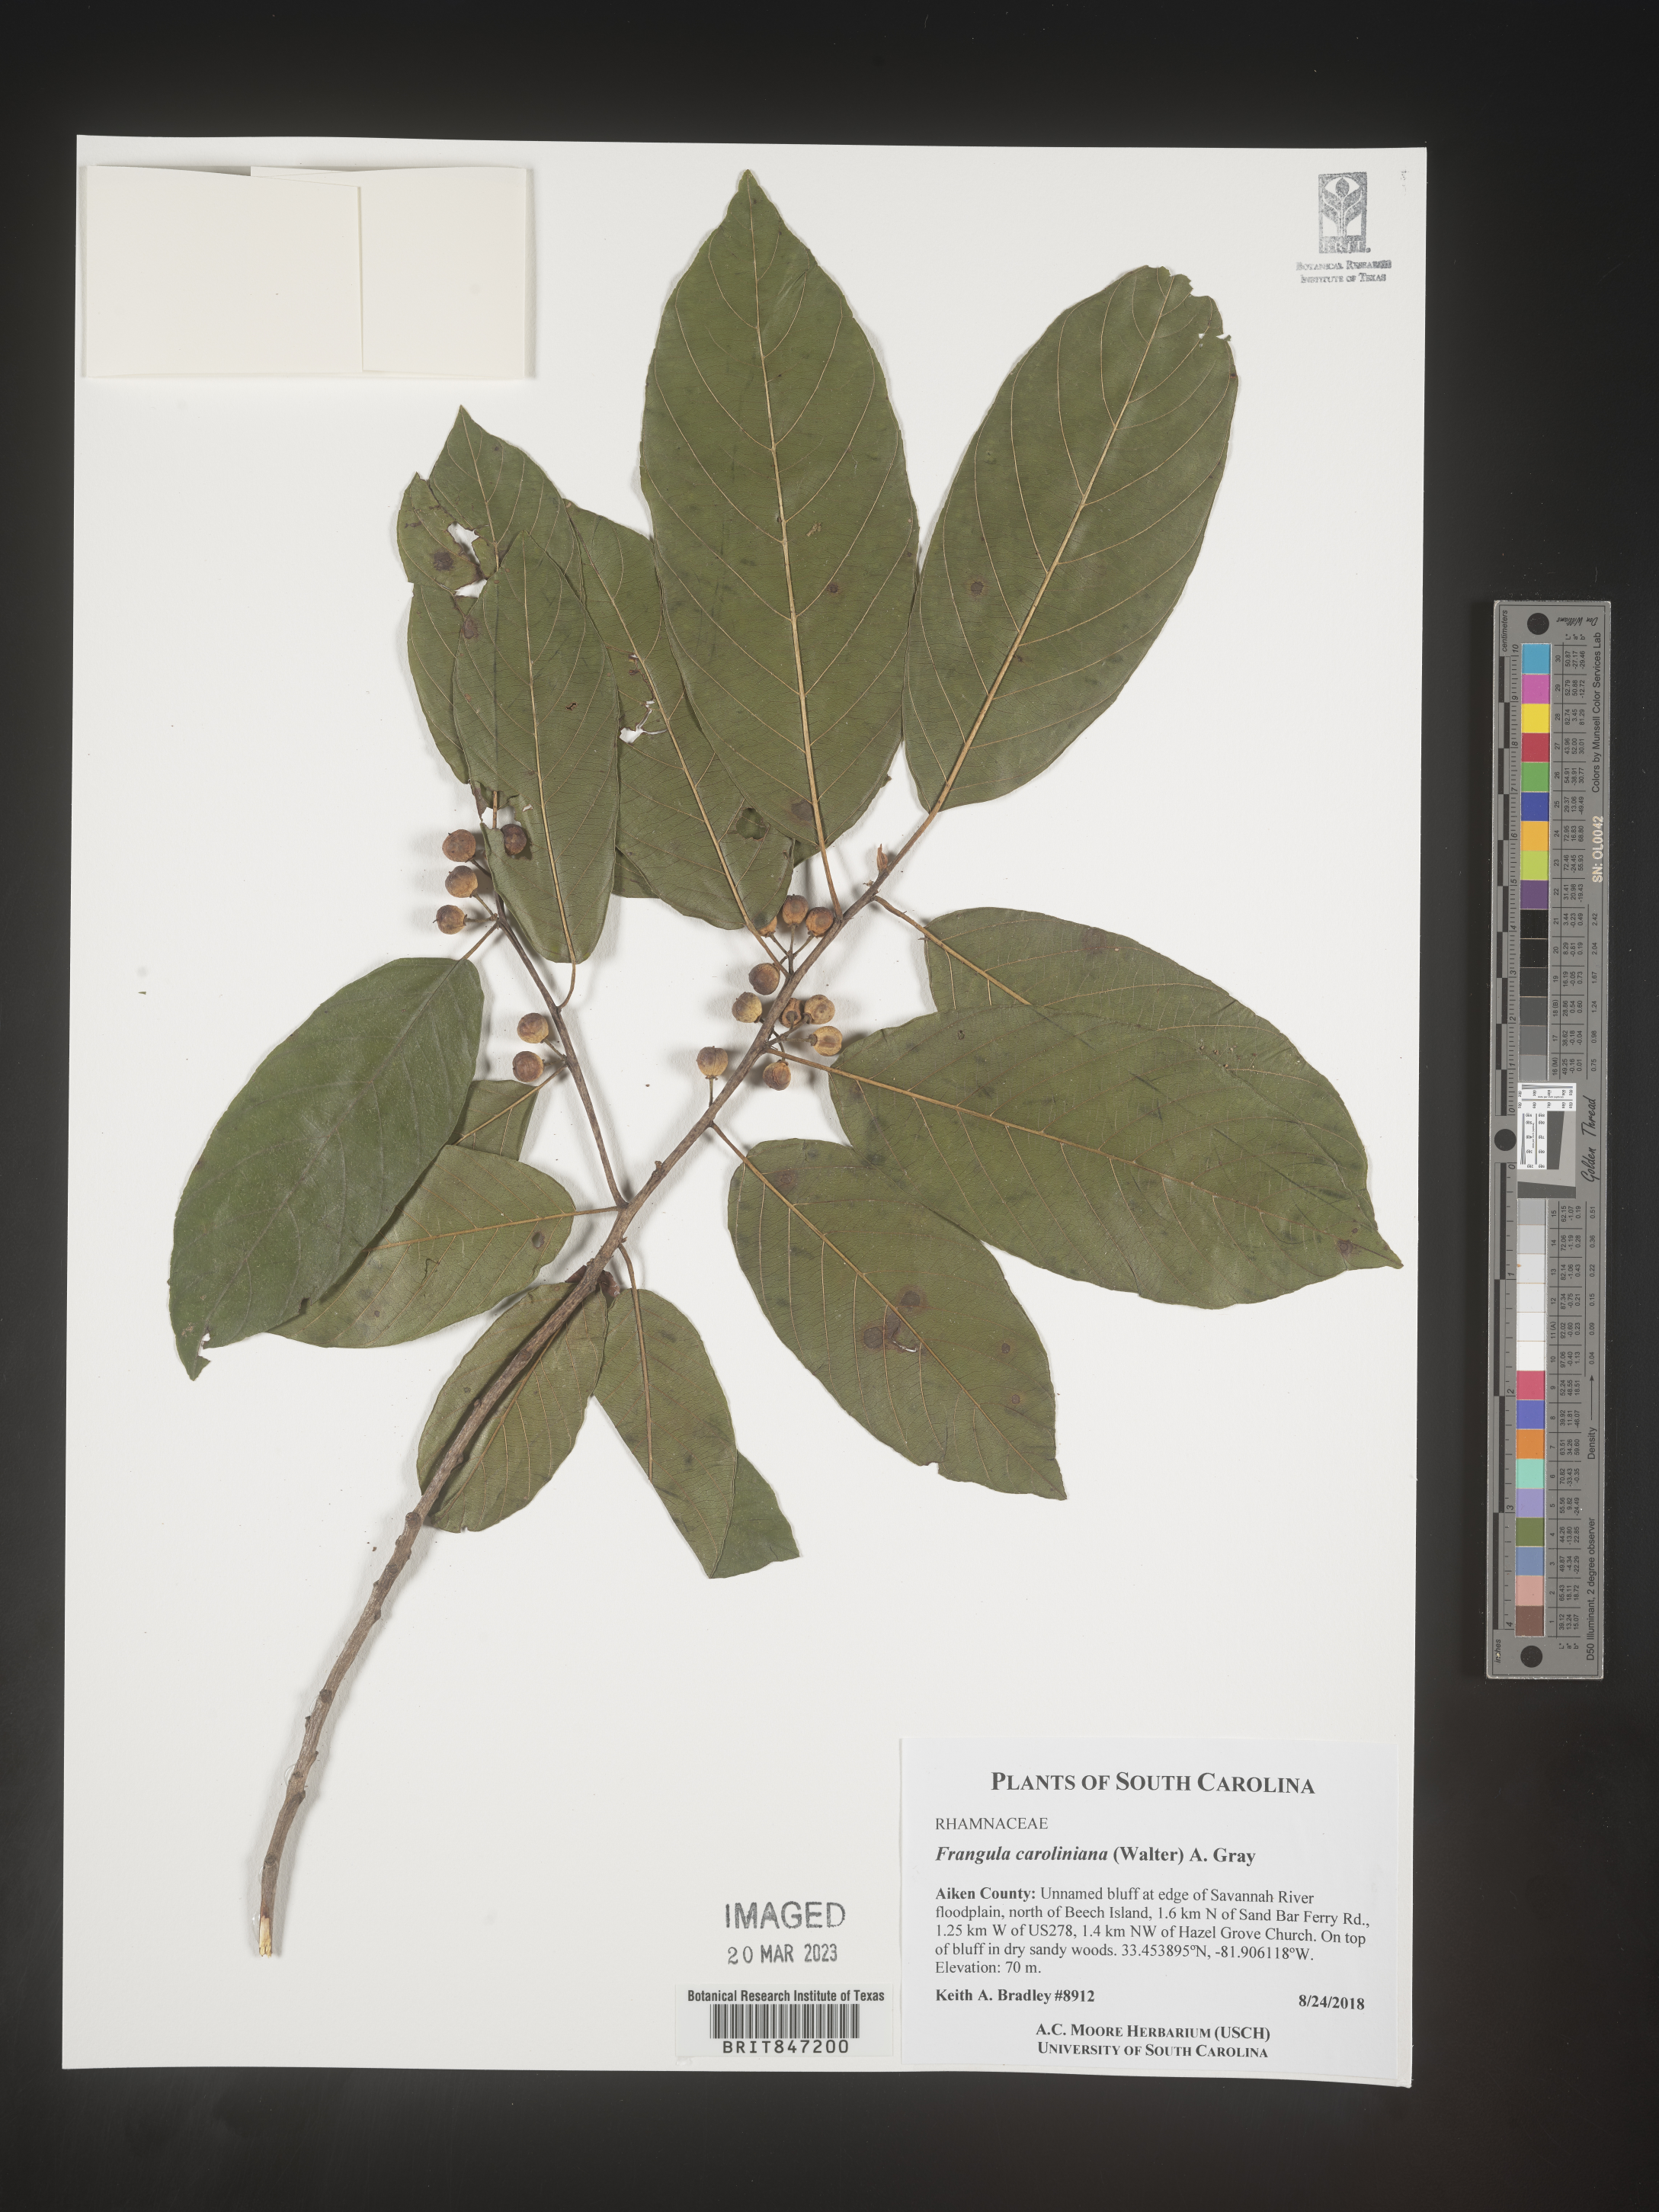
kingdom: Plantae
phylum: Tracheophyta
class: Magnoliopsida
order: Rosales
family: Rhamnaceae
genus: Frangula
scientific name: Frangula
